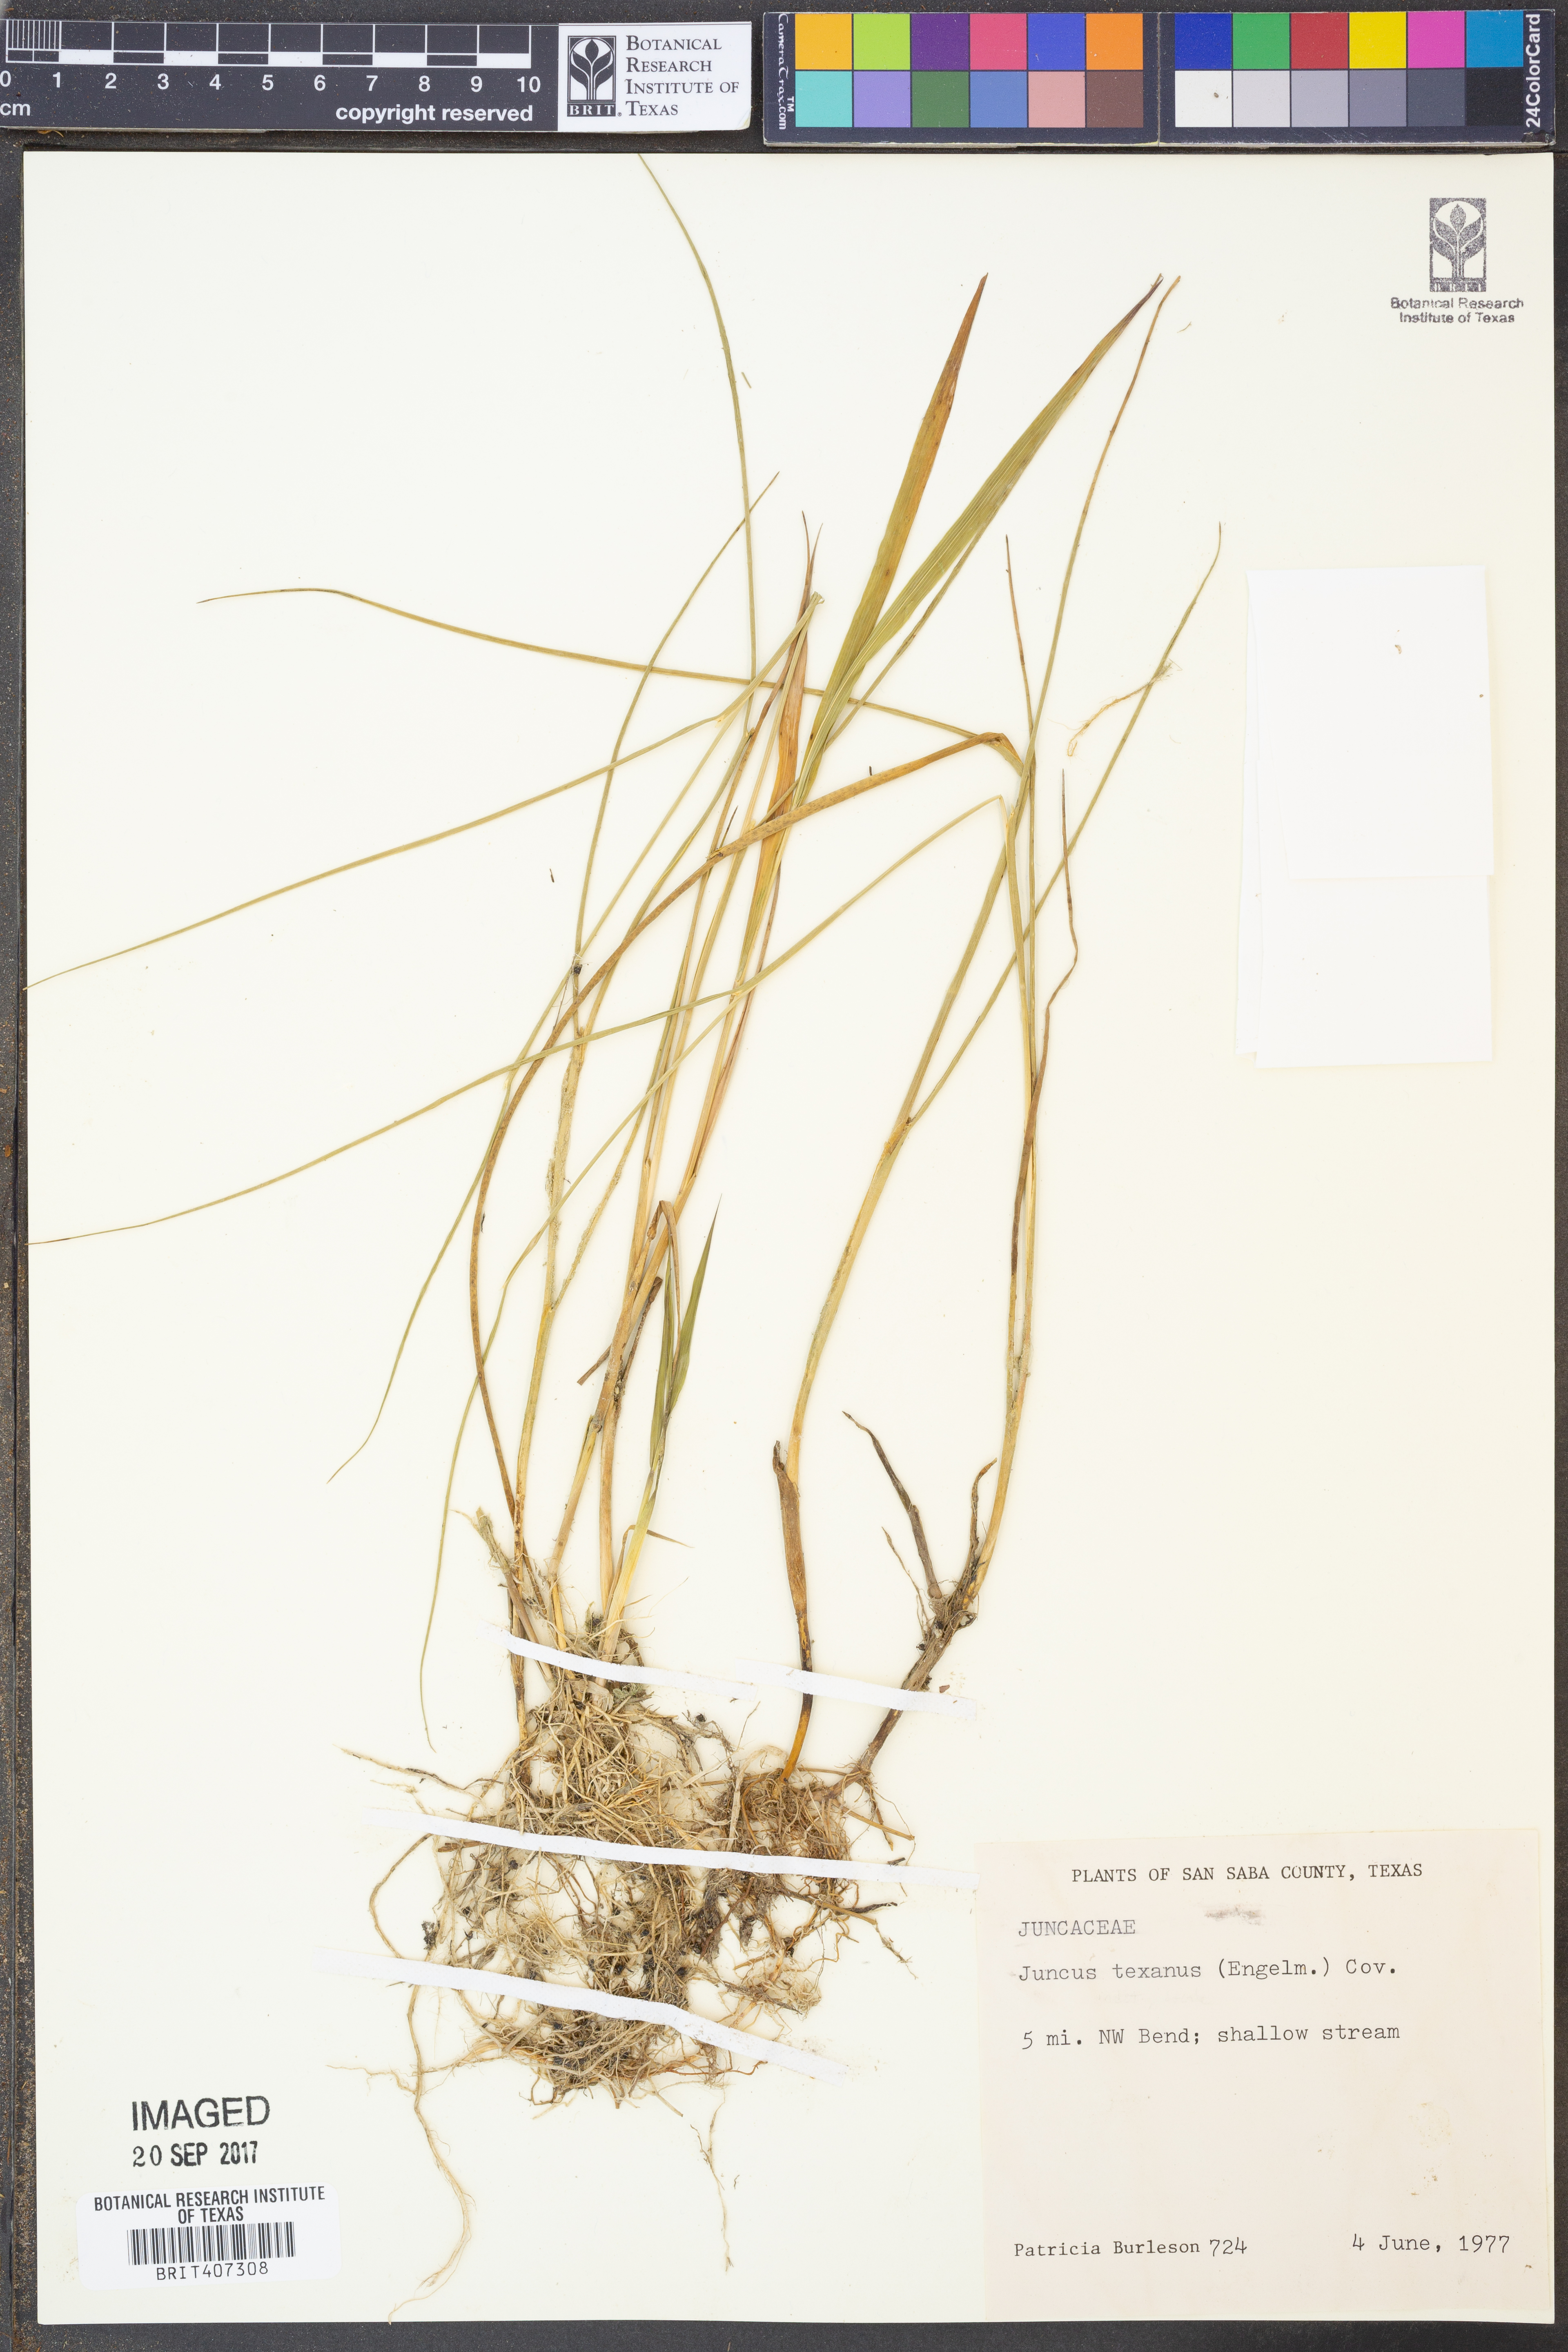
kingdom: Plantae
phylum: Tracheophyta
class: Liliopsida
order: Poales
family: Juncaceae
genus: Juncus
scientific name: Juncus texanus
